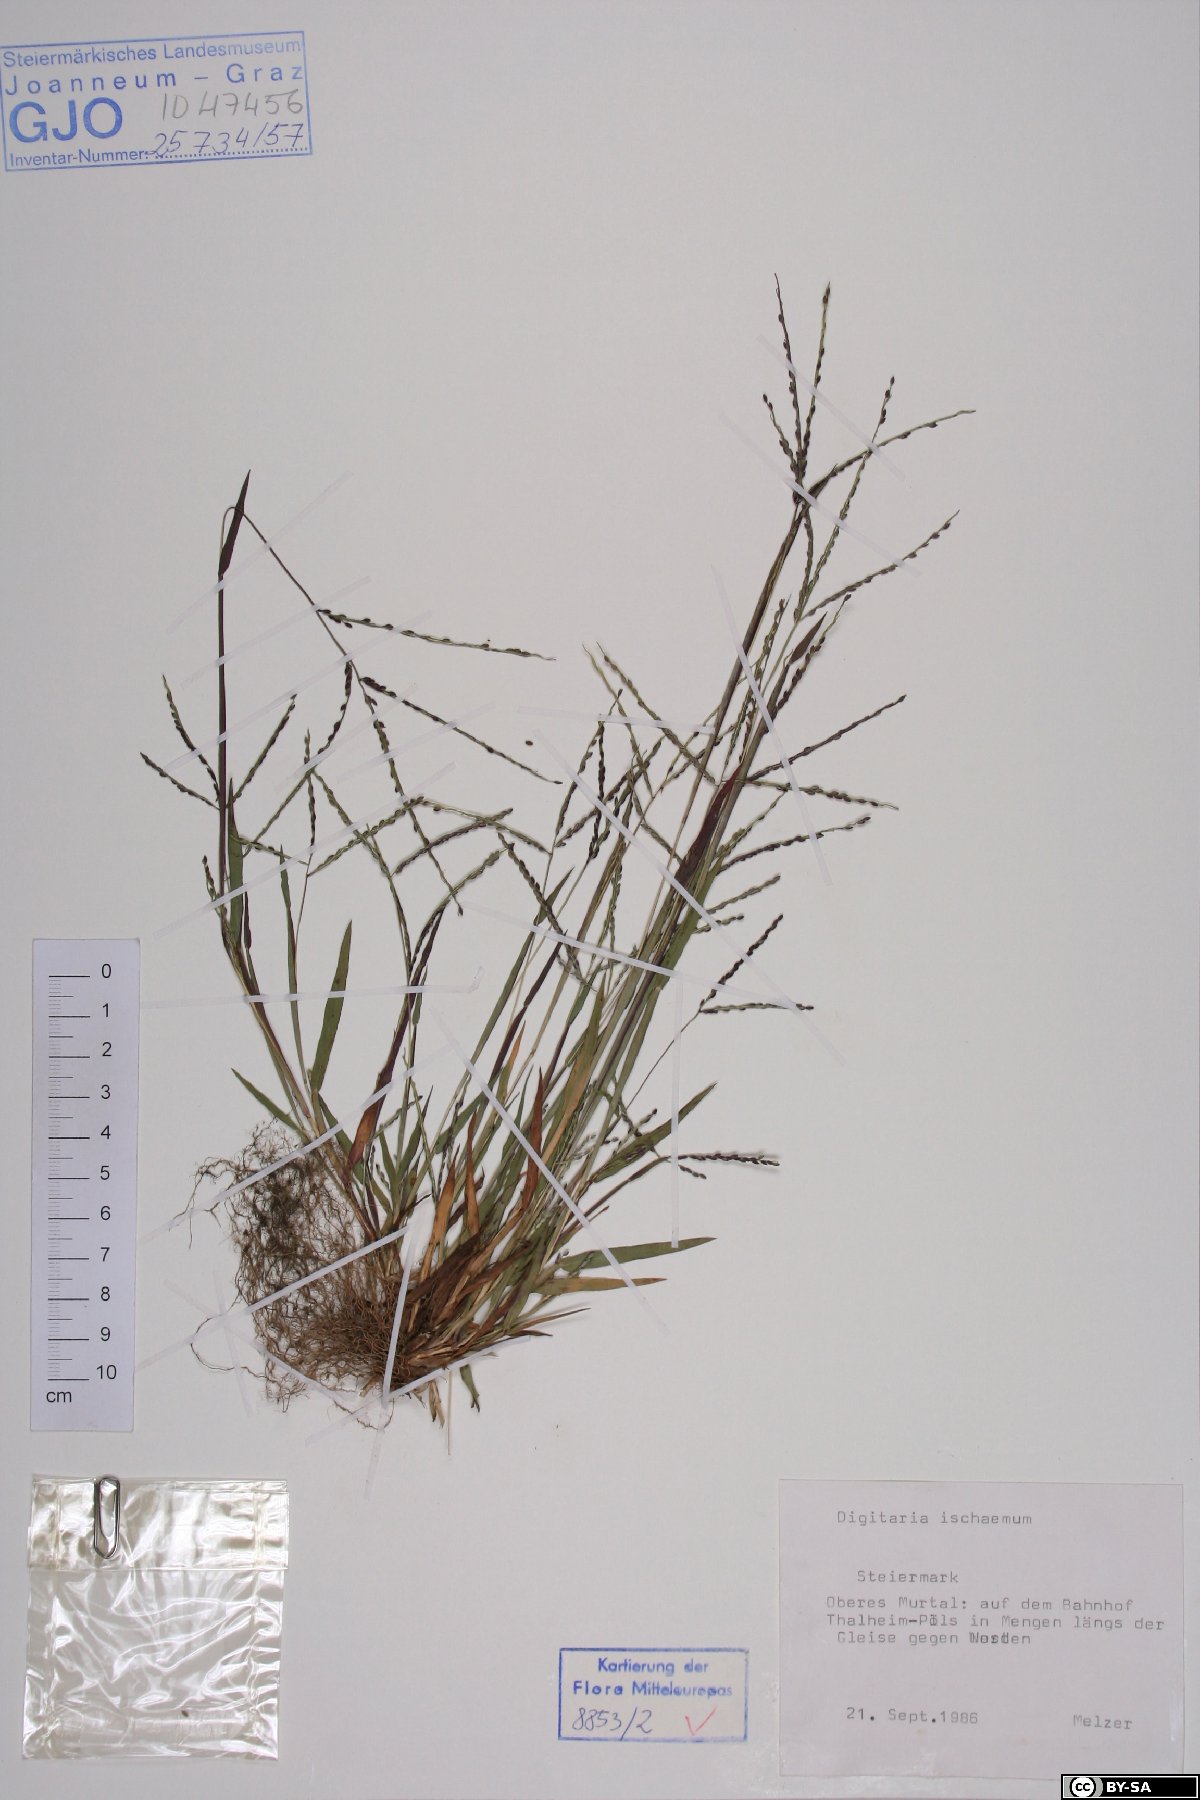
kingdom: Plantae
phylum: Tracheophyta
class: Liliopsida
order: Poales
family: Poaceae
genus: Digitaria
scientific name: Digitaria ischaemum
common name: Smooth crabgrass
